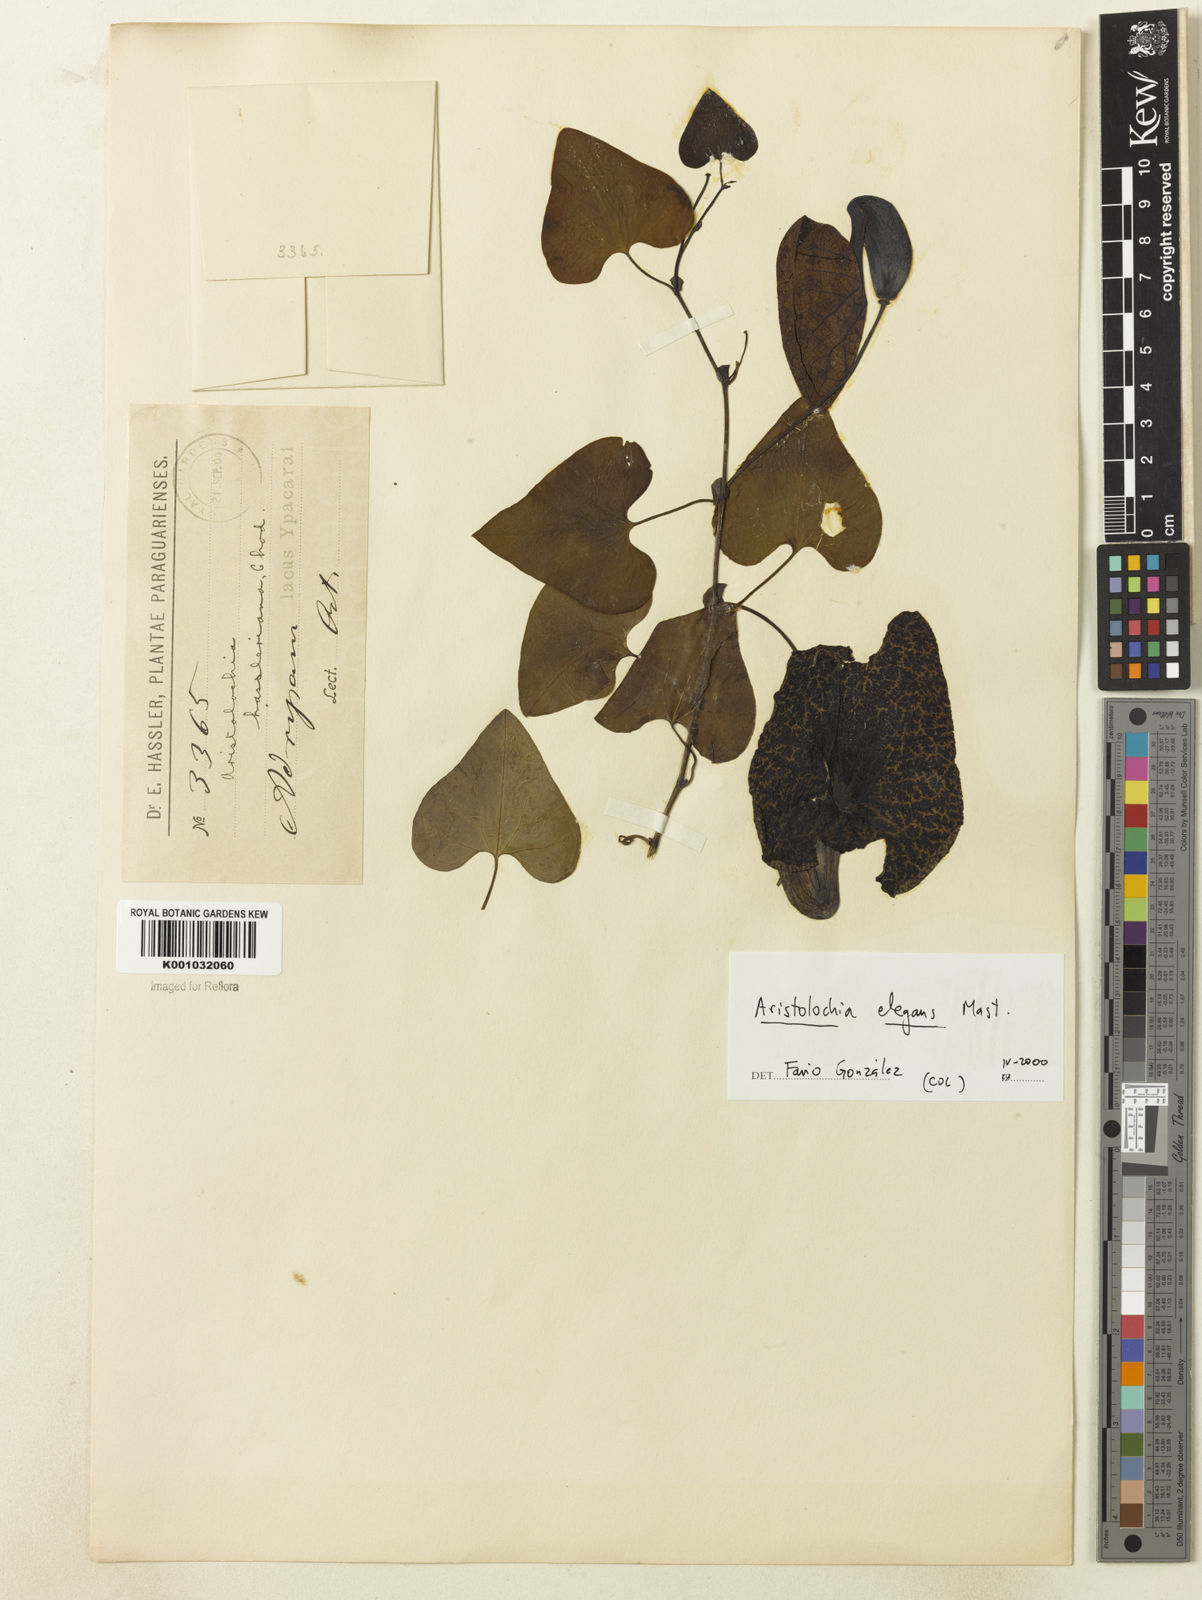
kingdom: Plantae
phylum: Tracheophyta
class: Magnoliopsida
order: Piperales
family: Aristolochiaceae
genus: Aristolochia
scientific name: Aristolochia littoralis
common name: Duck
